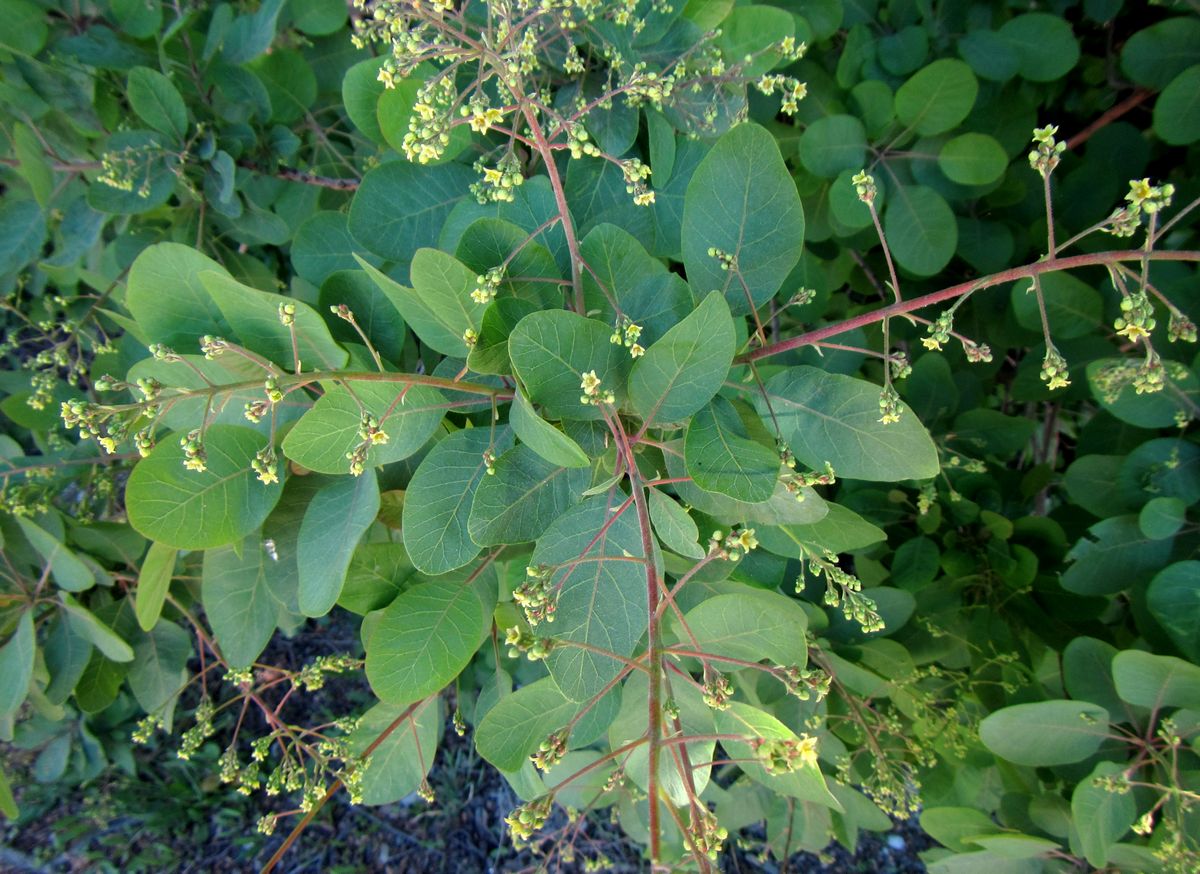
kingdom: Plantae
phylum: Tracheophyta
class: Magnoliopsida
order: Sapindales
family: Anacardiaceae
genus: Cotinus
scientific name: Cotinus coggygria
